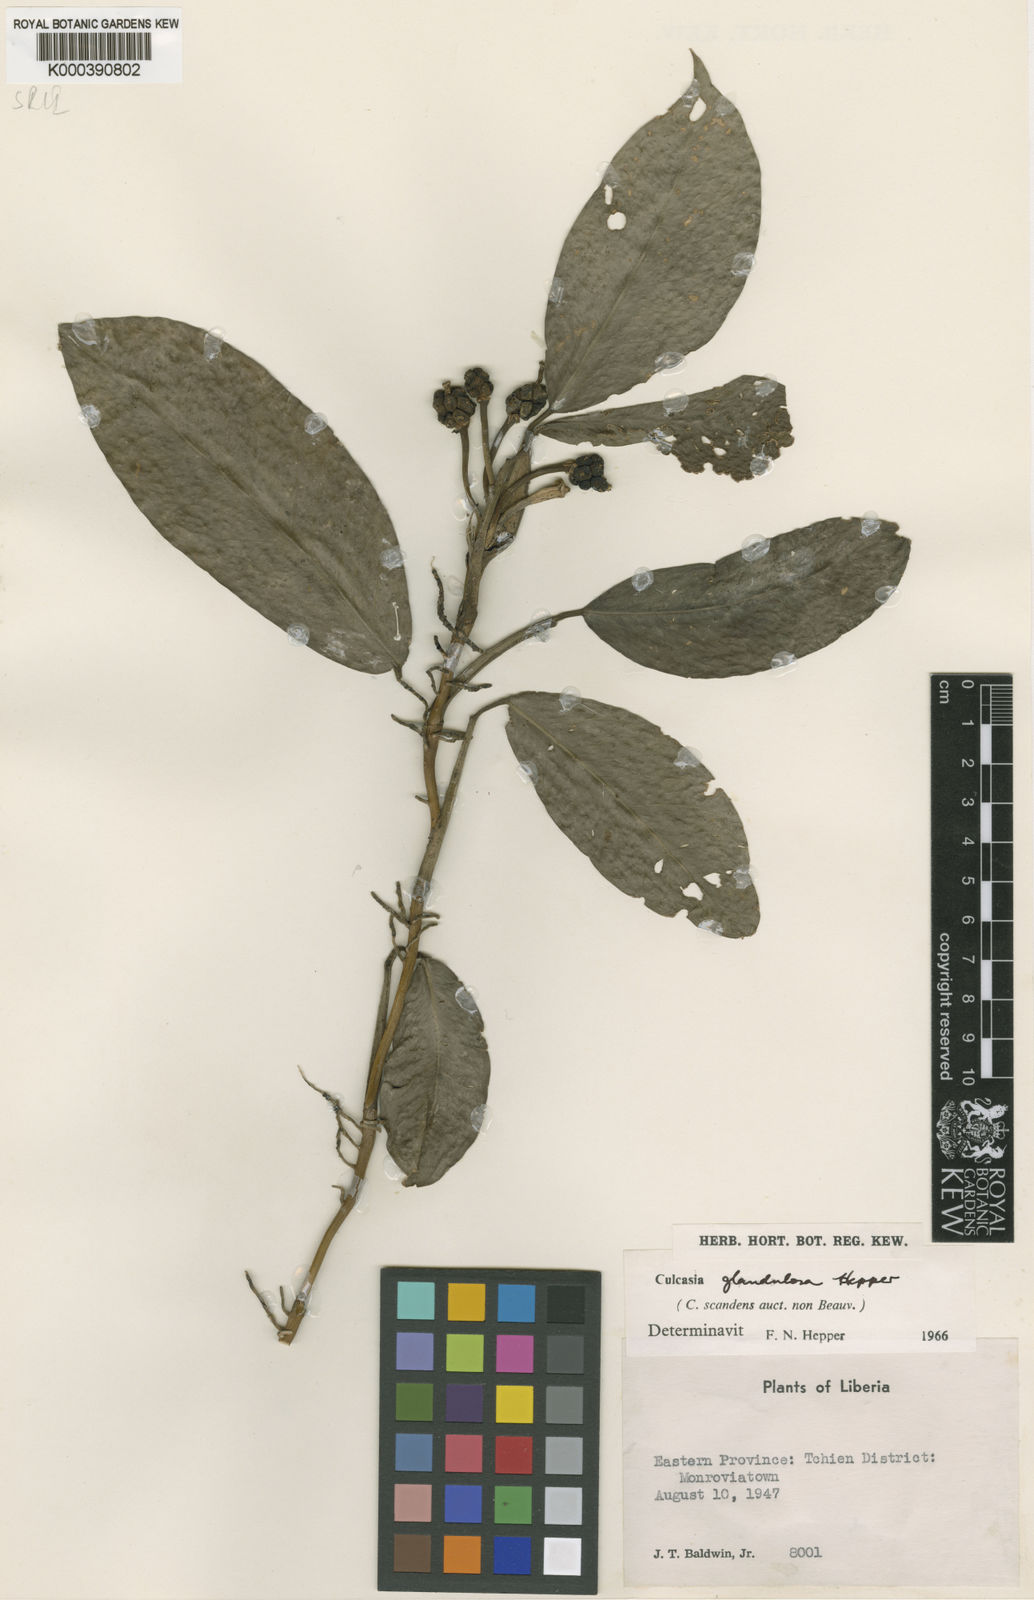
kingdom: Plantae
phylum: Tracheophyta
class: Liliopsida
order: Alismatales
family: Araceae
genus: Culcasia
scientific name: Culcasia glandulosa
